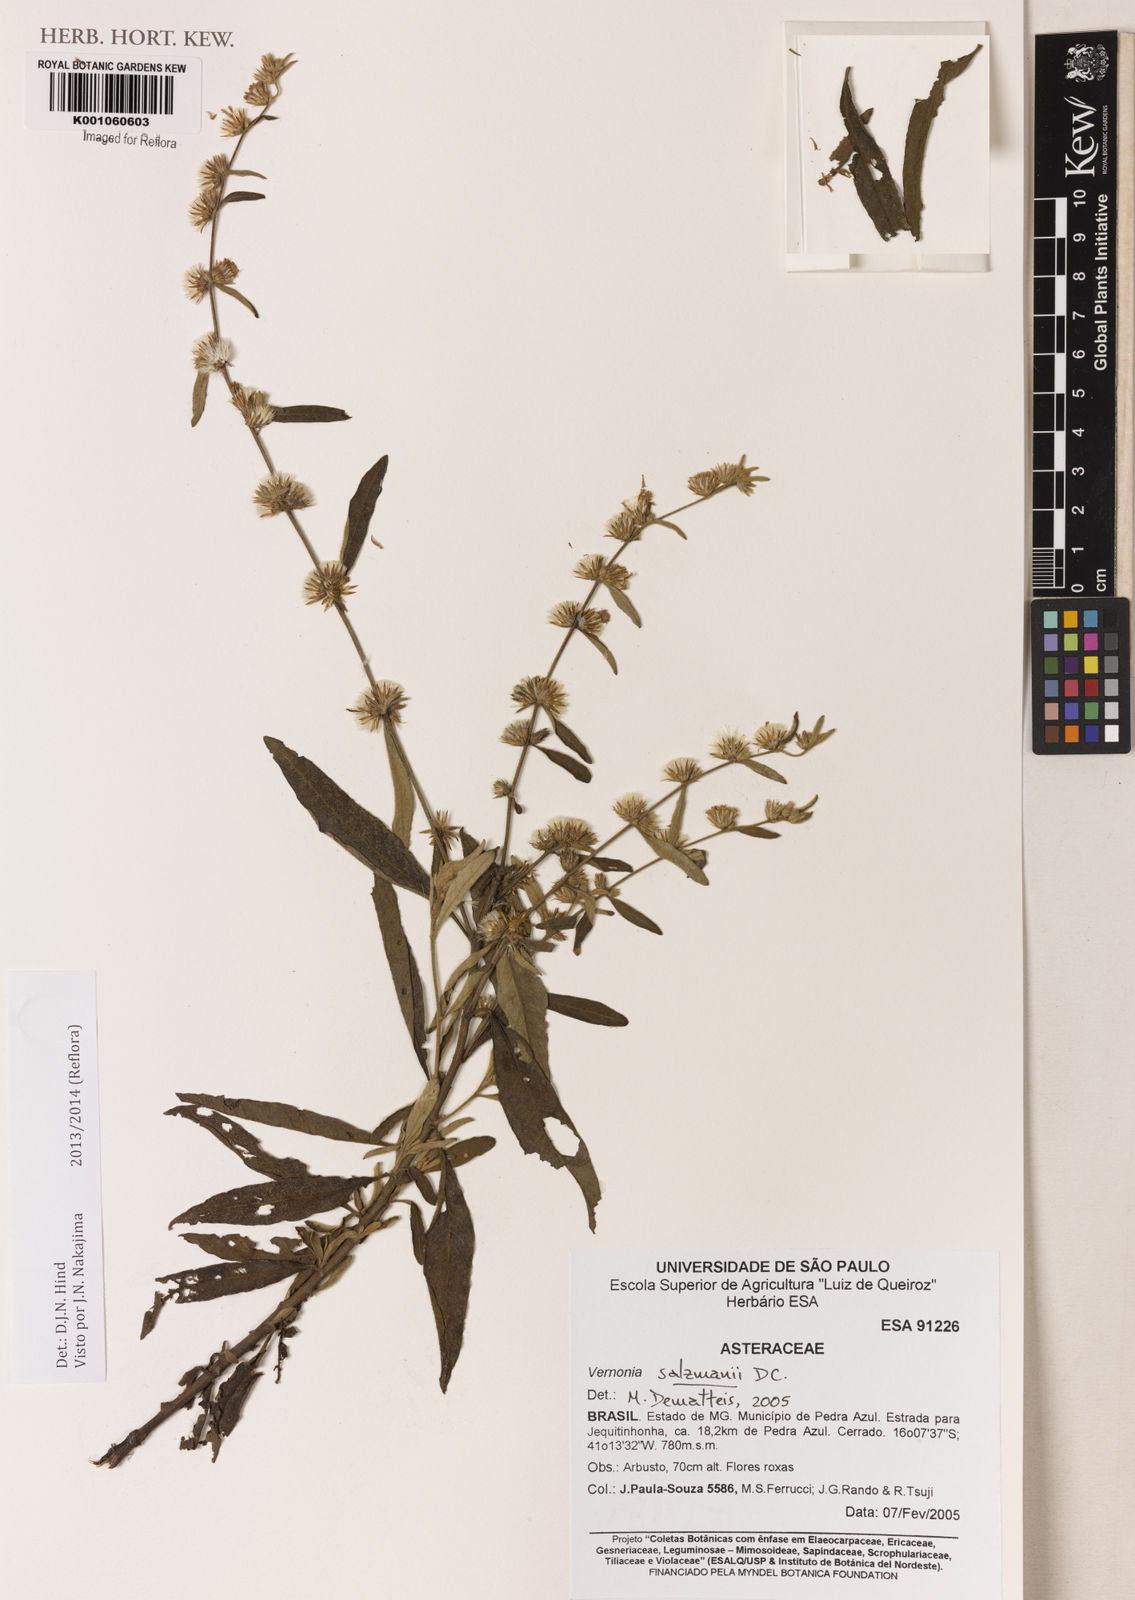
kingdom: Plantae
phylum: Tracheophyta
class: Magnoliopsida
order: Asterales
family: Asteraceae
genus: Lepidaploa
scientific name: Lepidaploa salzmannii
